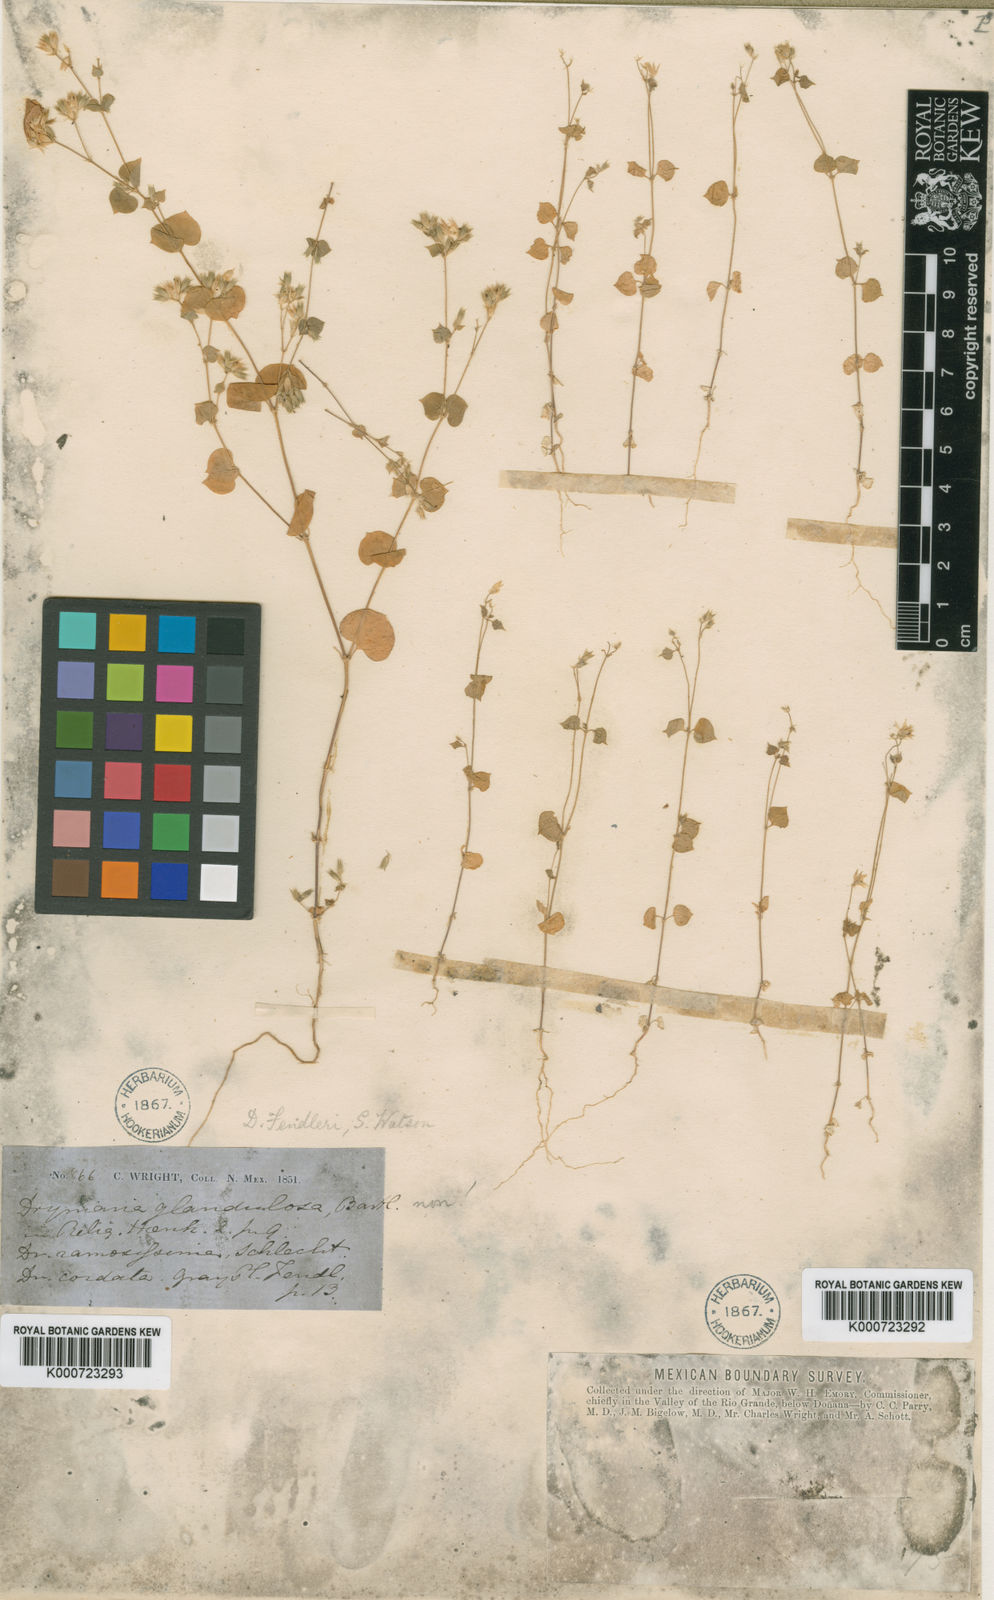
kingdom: Plantae
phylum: Tracheophyta
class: Magnoliopsida
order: Caryophyllales
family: Caryophyllaceae
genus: Drymaria
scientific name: Drymaria glandulosa
